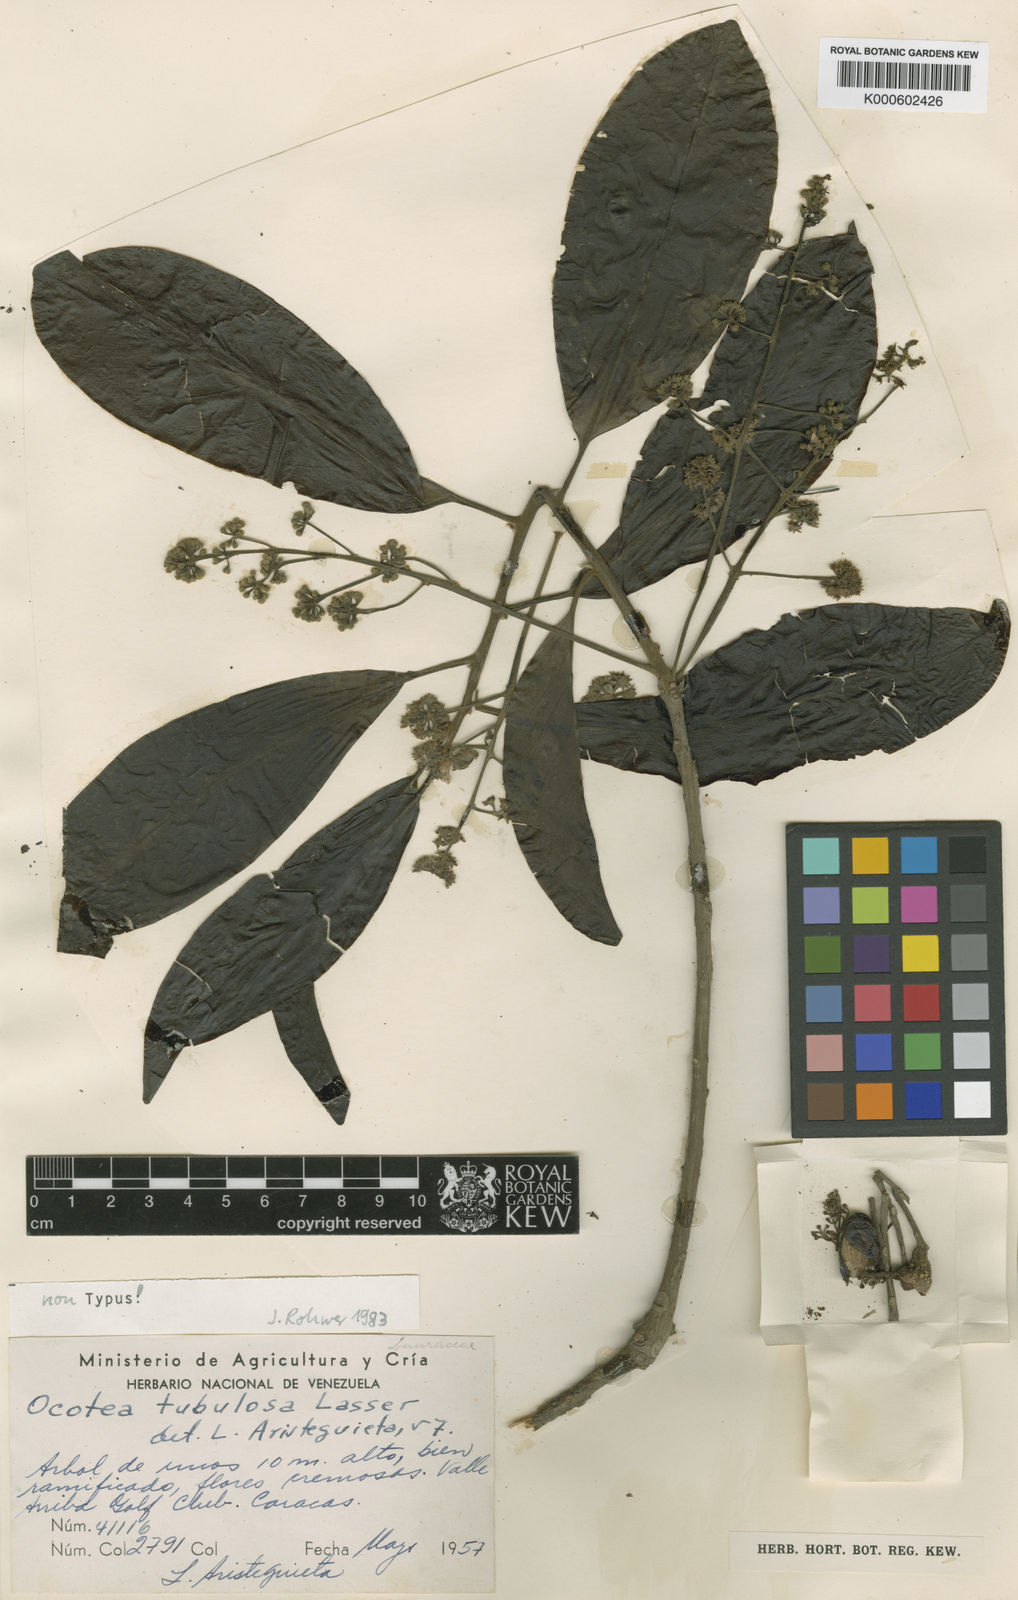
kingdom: Plantae
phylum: Tracheophyta
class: Magnoliopsida
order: Laurales
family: Lauraceae
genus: Ocotea
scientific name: Ocotea tubulosa
